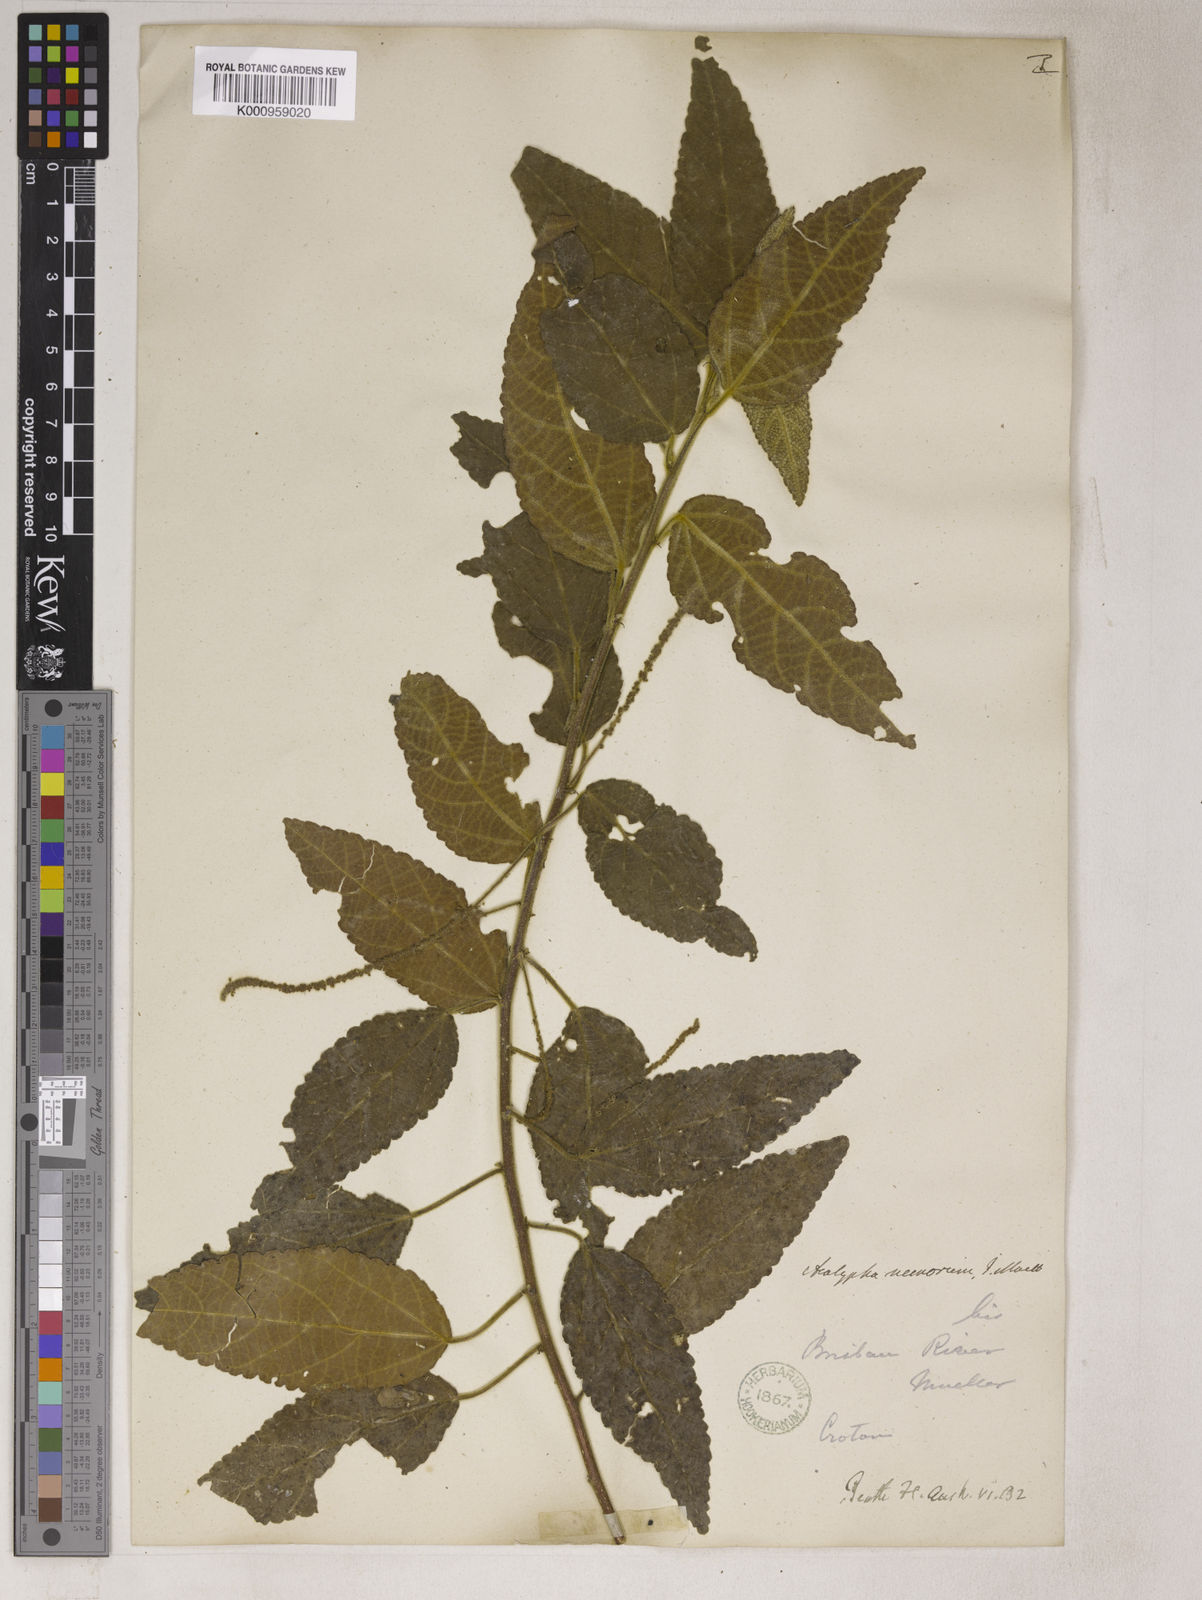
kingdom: Plantae
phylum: Tracheophyta
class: Magnoliopsida
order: Malpighiales
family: Euphorbiaceae
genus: Acalypha
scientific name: Acalypha
